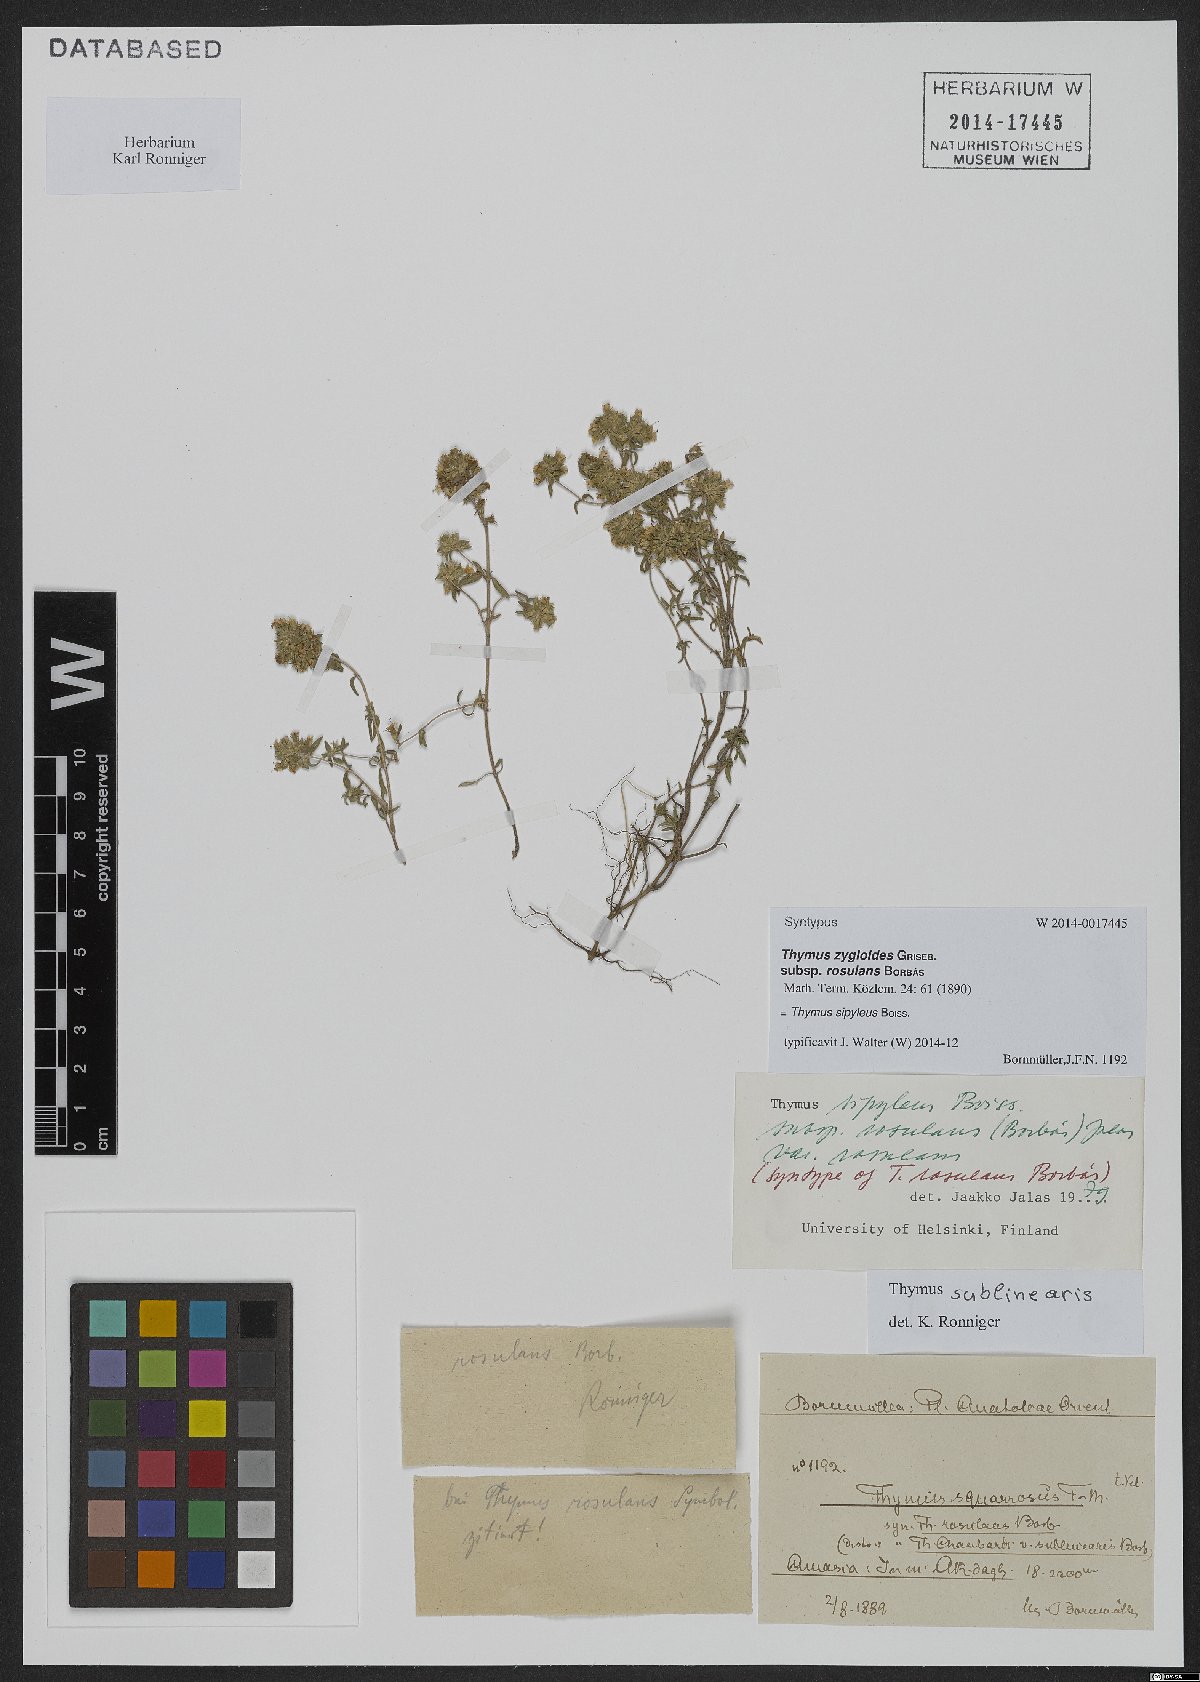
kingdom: Plantae
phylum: Tracheophyta
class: Magnoliopsida
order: Lamiales
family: Lamiaceae
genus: Thymus
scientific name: Thymus sipyleus
